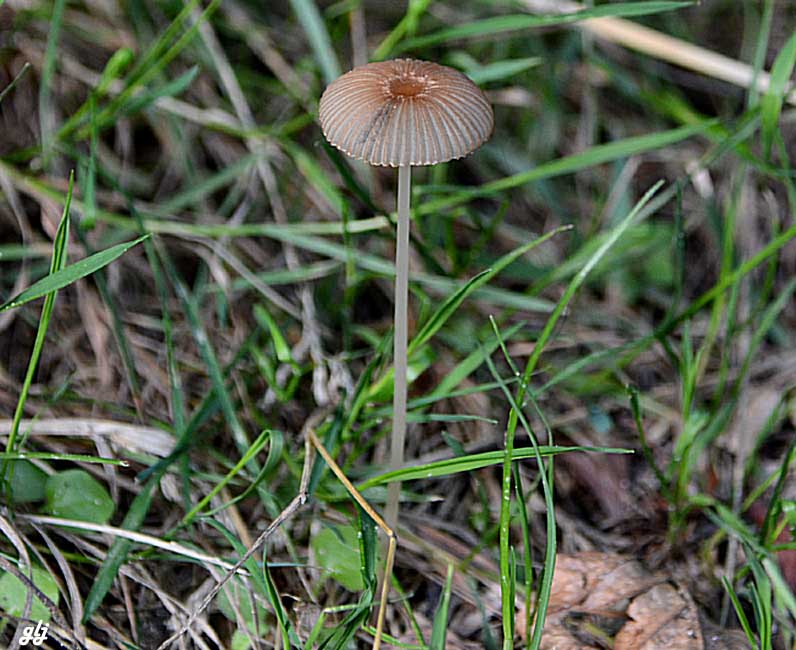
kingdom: Fungi
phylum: Basidiomycota
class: Agaricomycetes
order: Agaricales
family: Psathyrellaceae
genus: Parasola
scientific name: Parasola
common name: hjulhat
